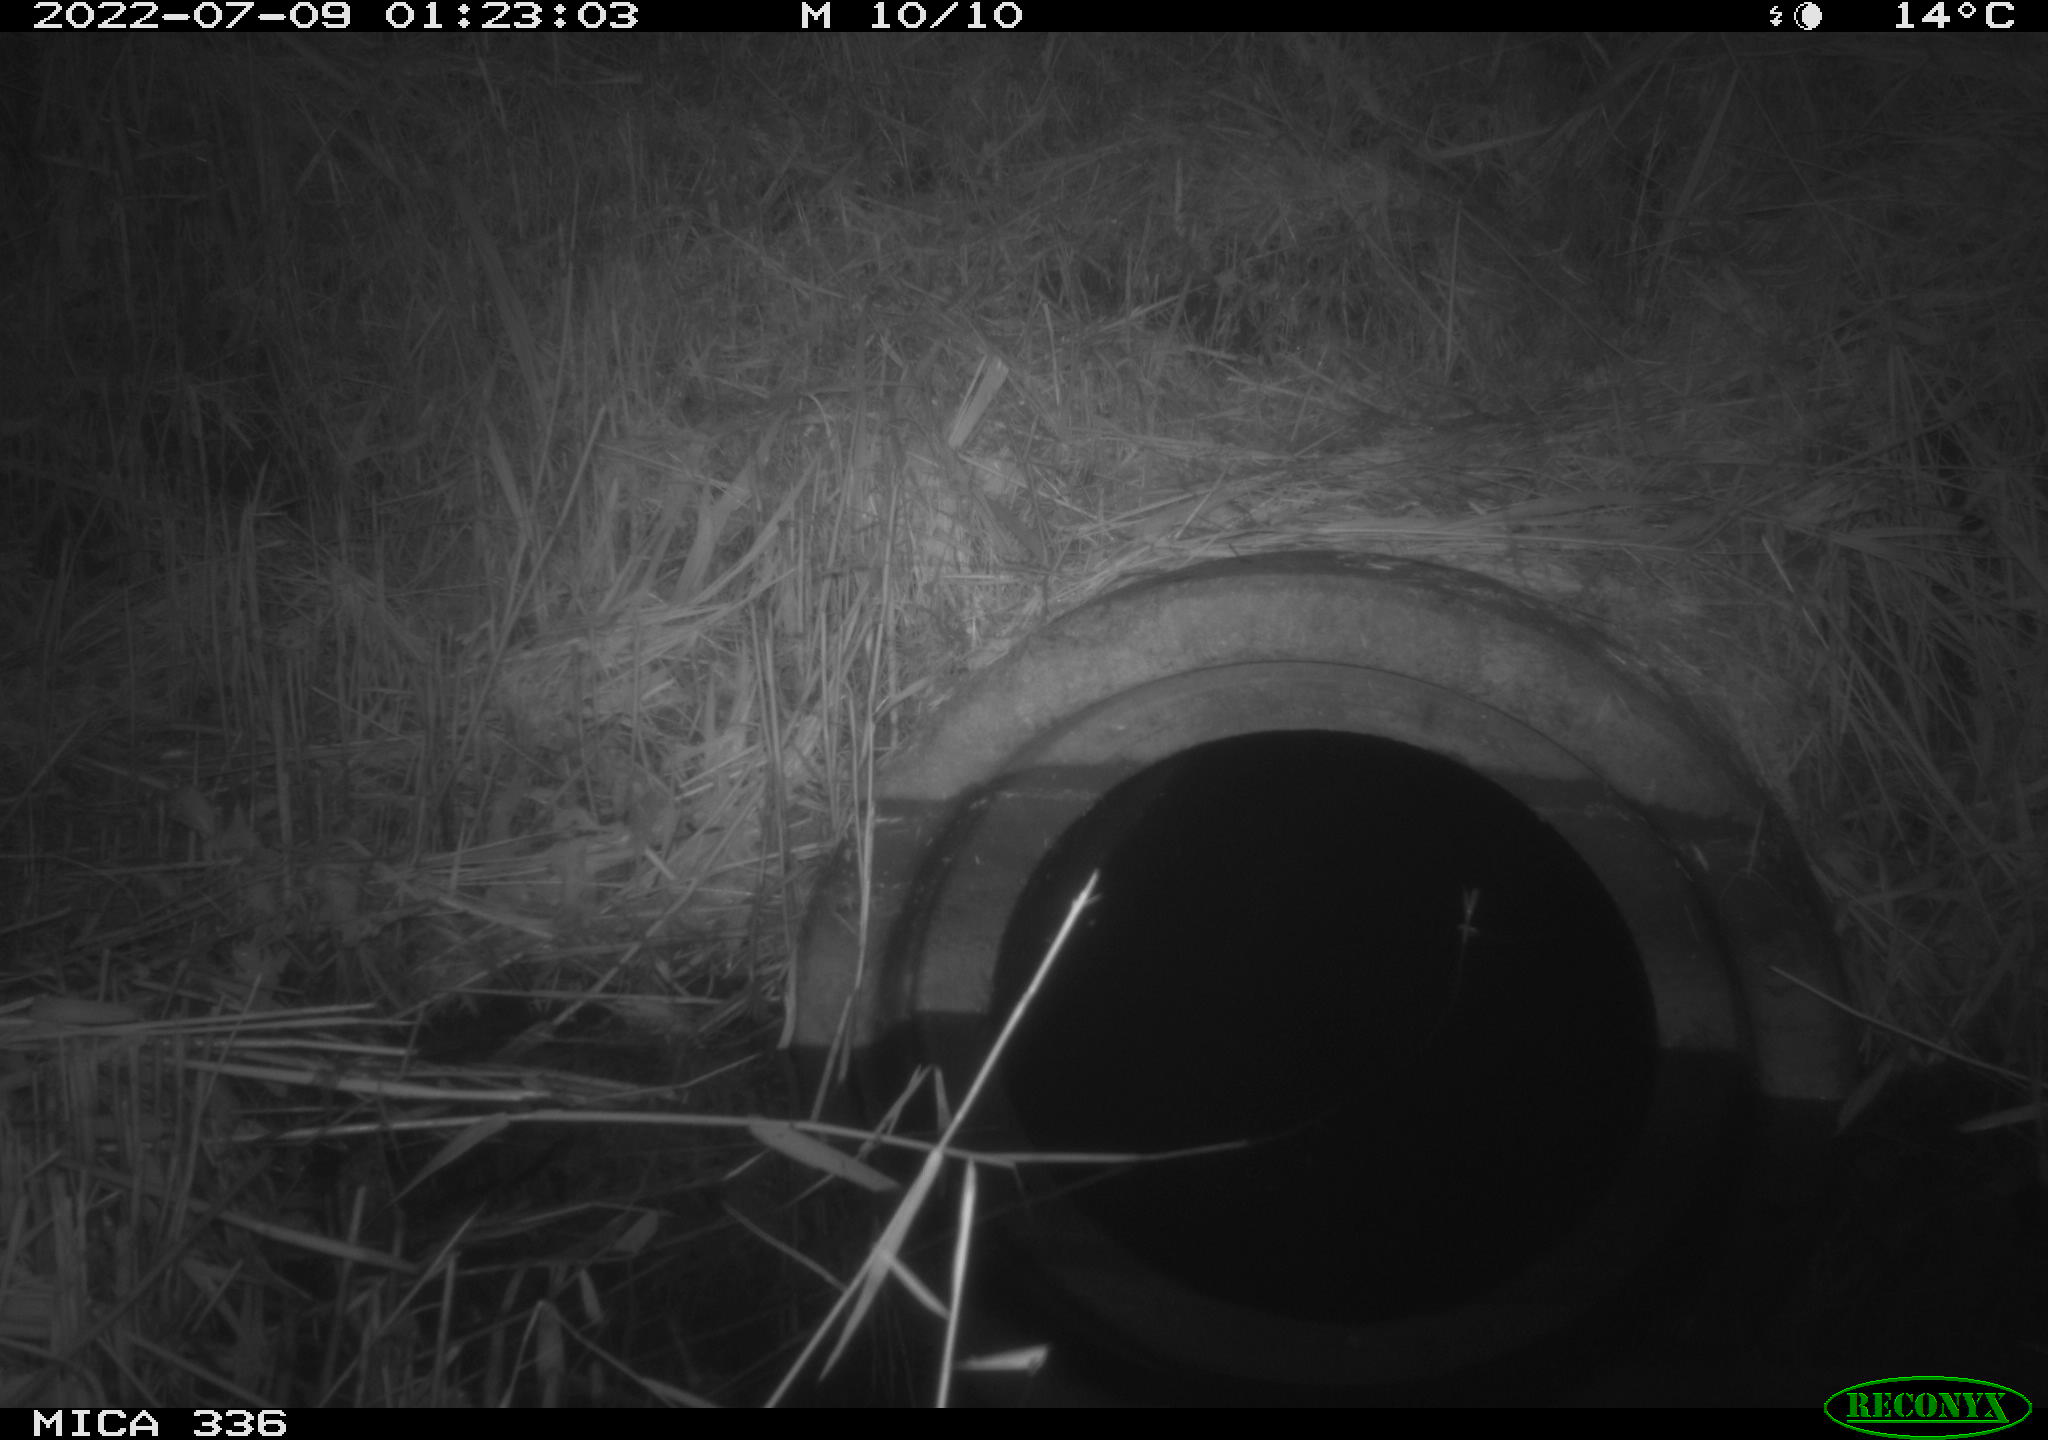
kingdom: Animalia
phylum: Chordata
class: Mammalia
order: Rodentia
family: Muridae
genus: Rattus
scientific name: Rattus norvegicus
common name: Brown rat
